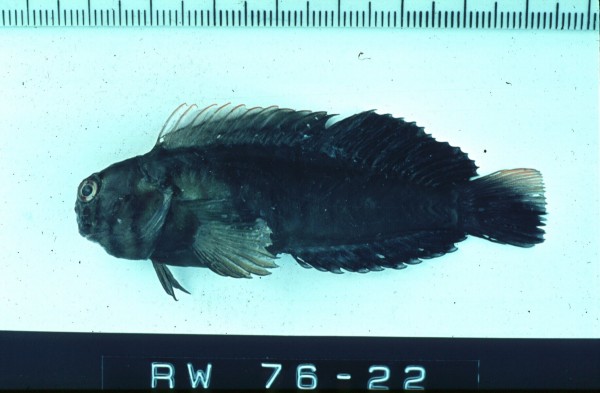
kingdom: Animalia
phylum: Chordata
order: Perciformes
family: Blenniidae
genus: Cirripectes
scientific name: Cirripectes castaneus
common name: Chestnut blenny
